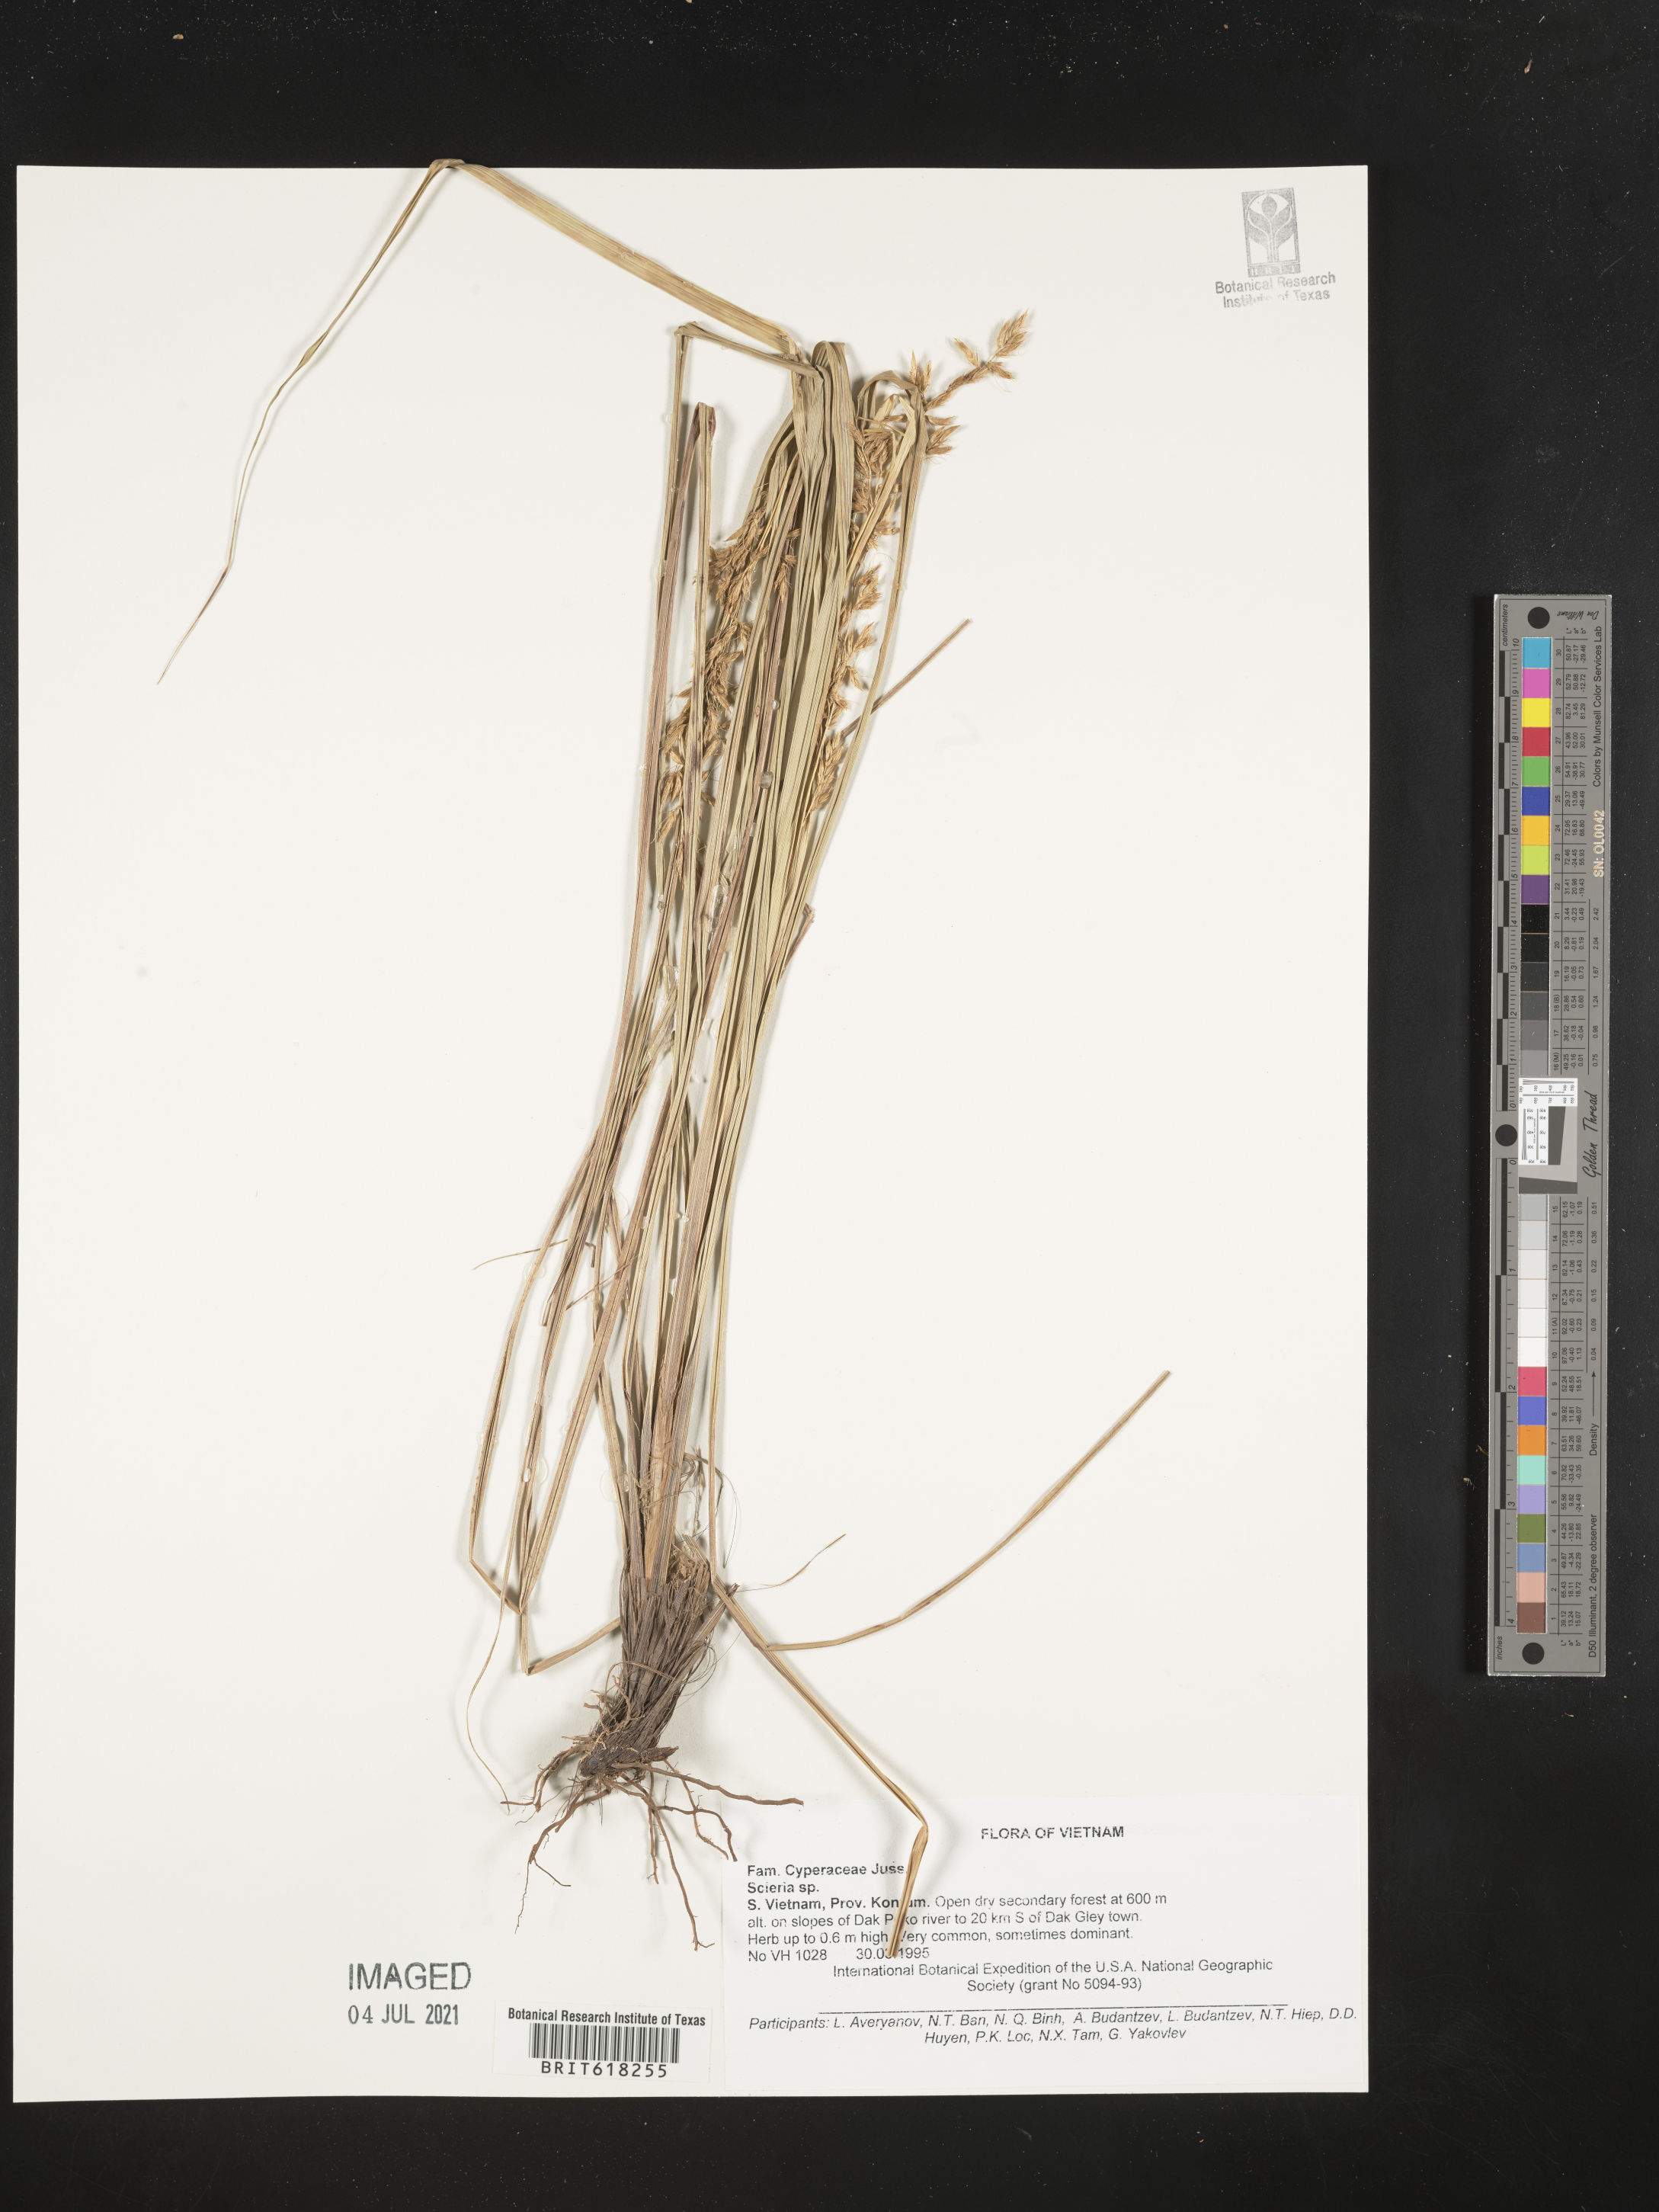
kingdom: Plantae
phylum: Tracheophyta
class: Liliopsida
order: Poales
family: Cyperaceae
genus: Scleria
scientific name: Scleria
